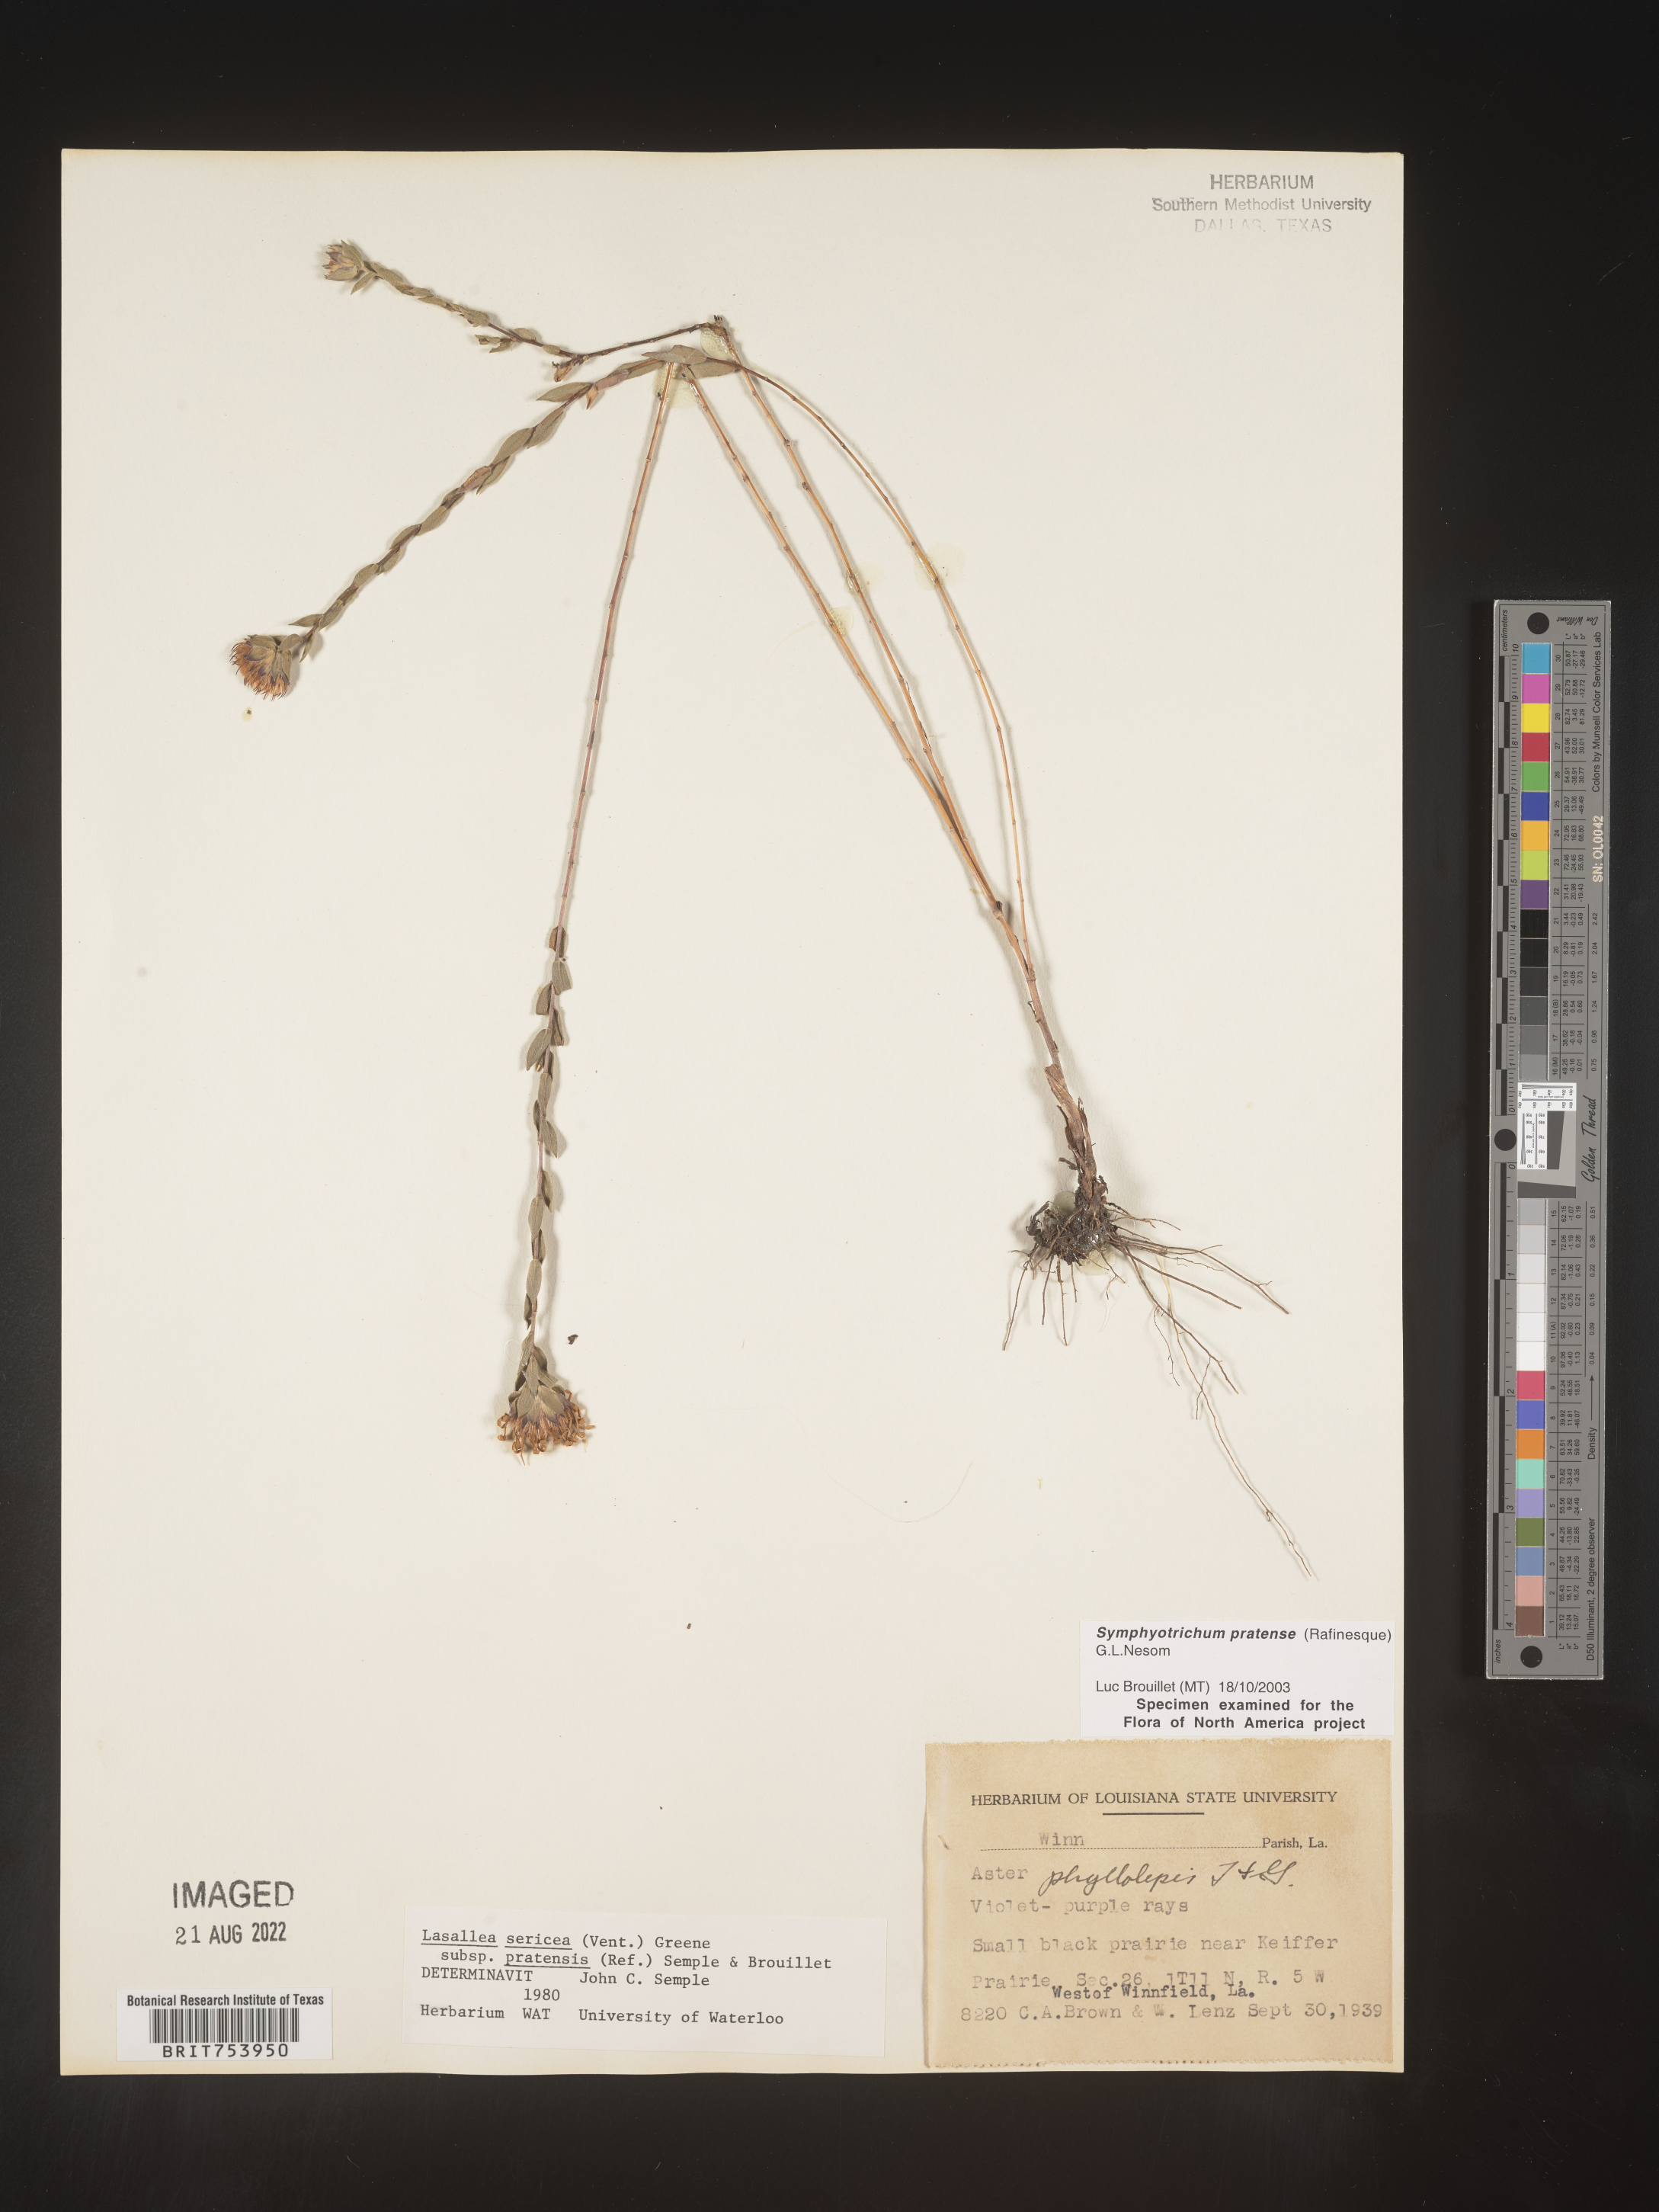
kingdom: Plantae
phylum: Tracheophyta
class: Magnoliopsida
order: Asterales
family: Asteraceae
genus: Symphyotrichum
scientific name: Symphyotrichum pratense
